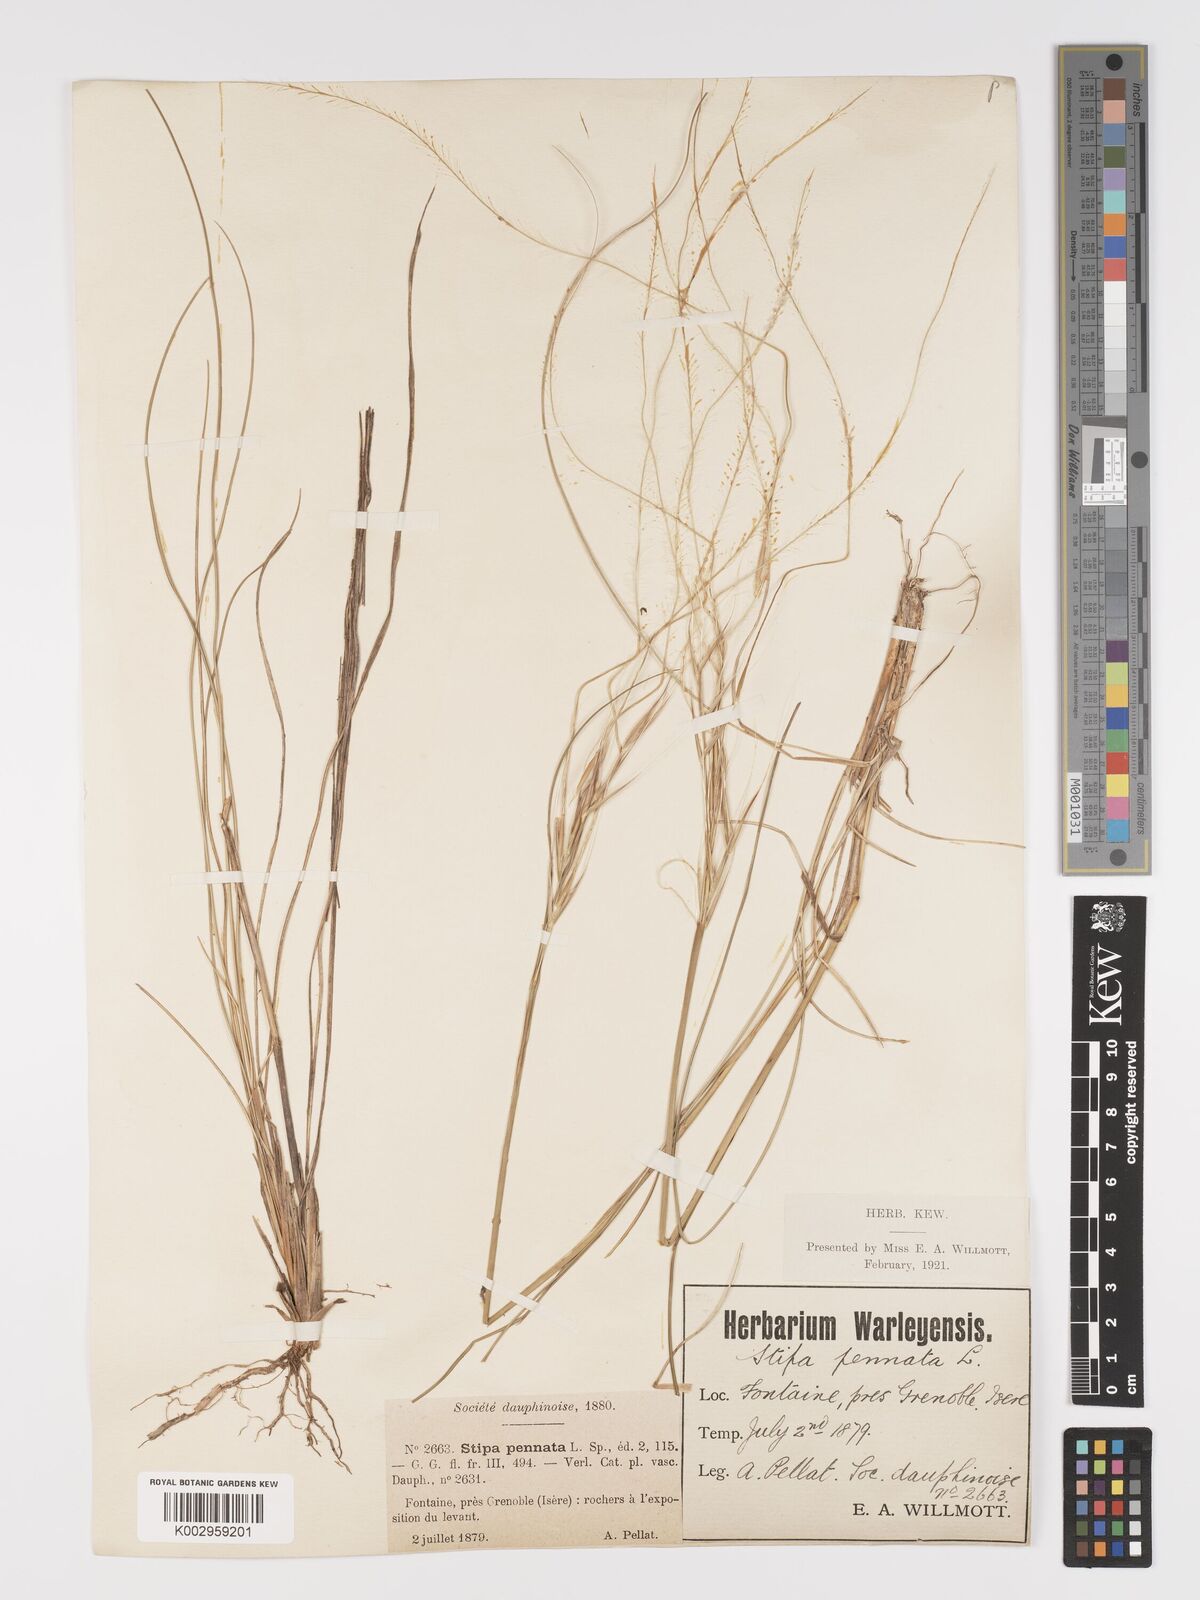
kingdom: Plantae
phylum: Tracheophyta
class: Liliopsida
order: Poales
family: Poaceae
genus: Stipa
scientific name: Stipa pennata
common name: European feather grass
